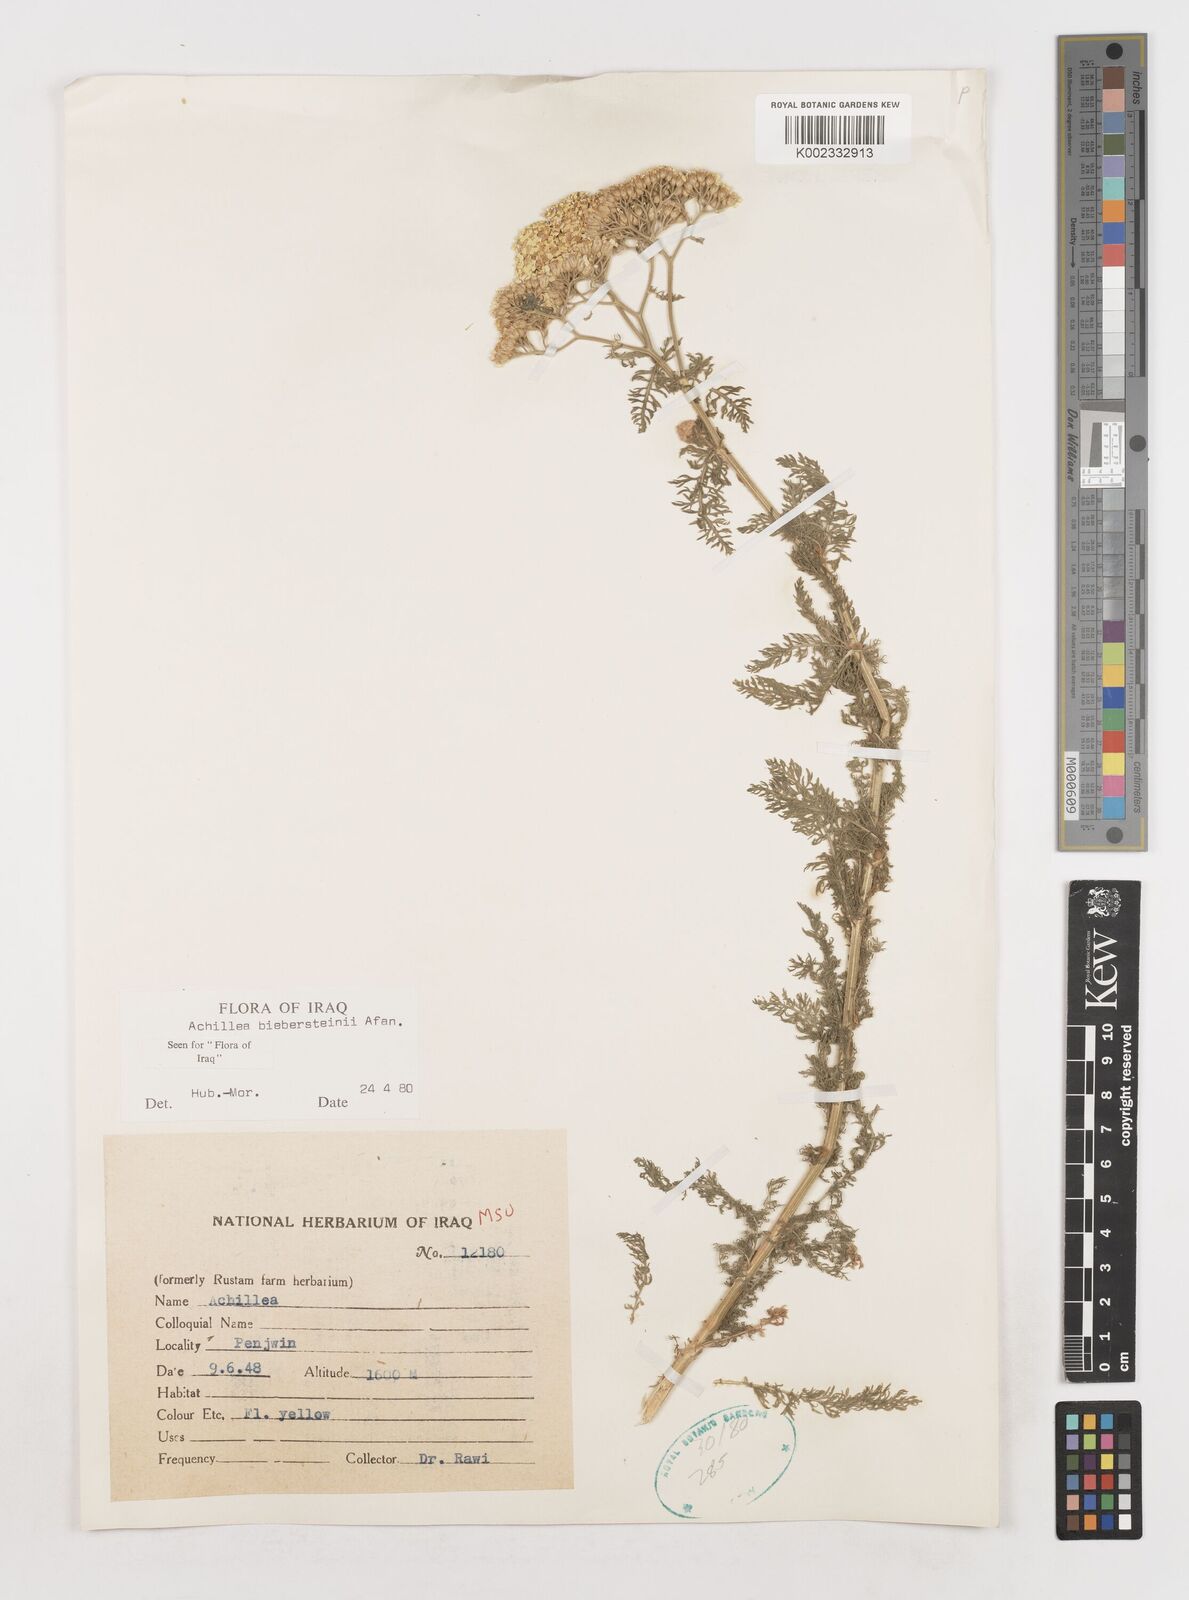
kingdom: Plantae
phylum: Tracheophyta
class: Magnoliopsida
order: Asterales
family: Asteraceae
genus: Achillea
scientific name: Achillea arabica
